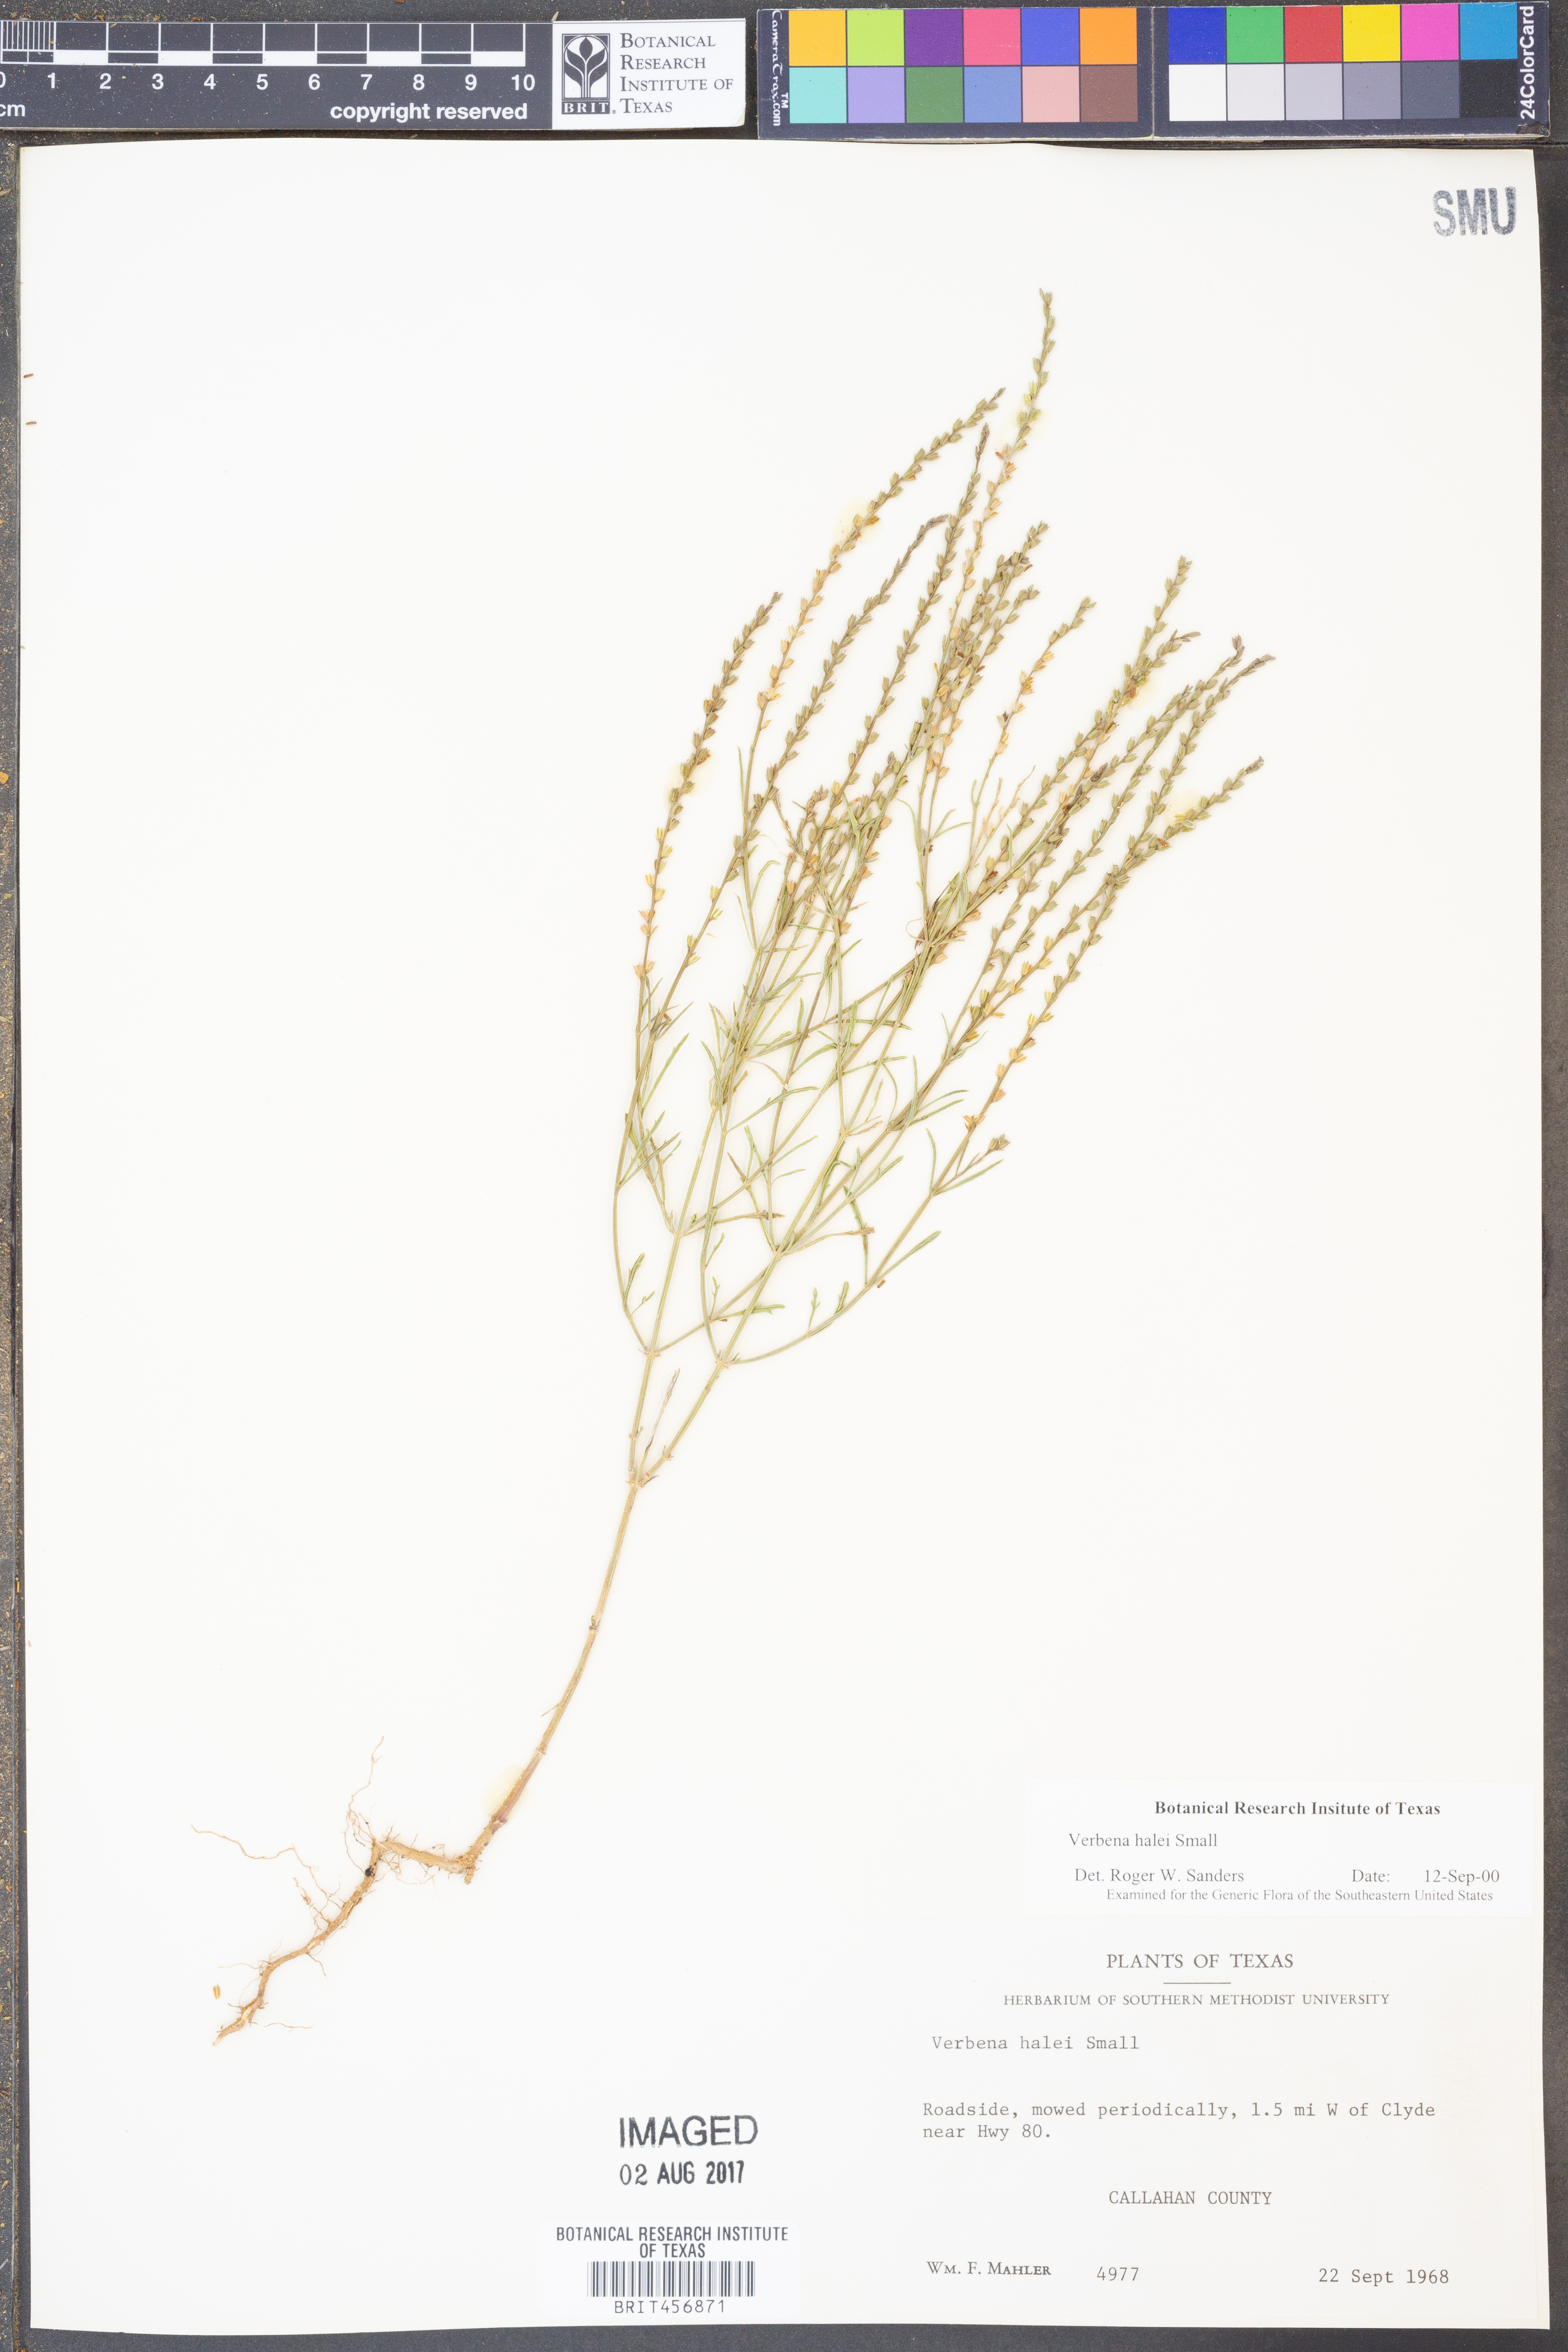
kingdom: Plantae
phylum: Tracheophyta
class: Magnoliopsida
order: Lamiales
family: Verbenaceae
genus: Verbena
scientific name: Verbena halei
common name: Texas vervain
